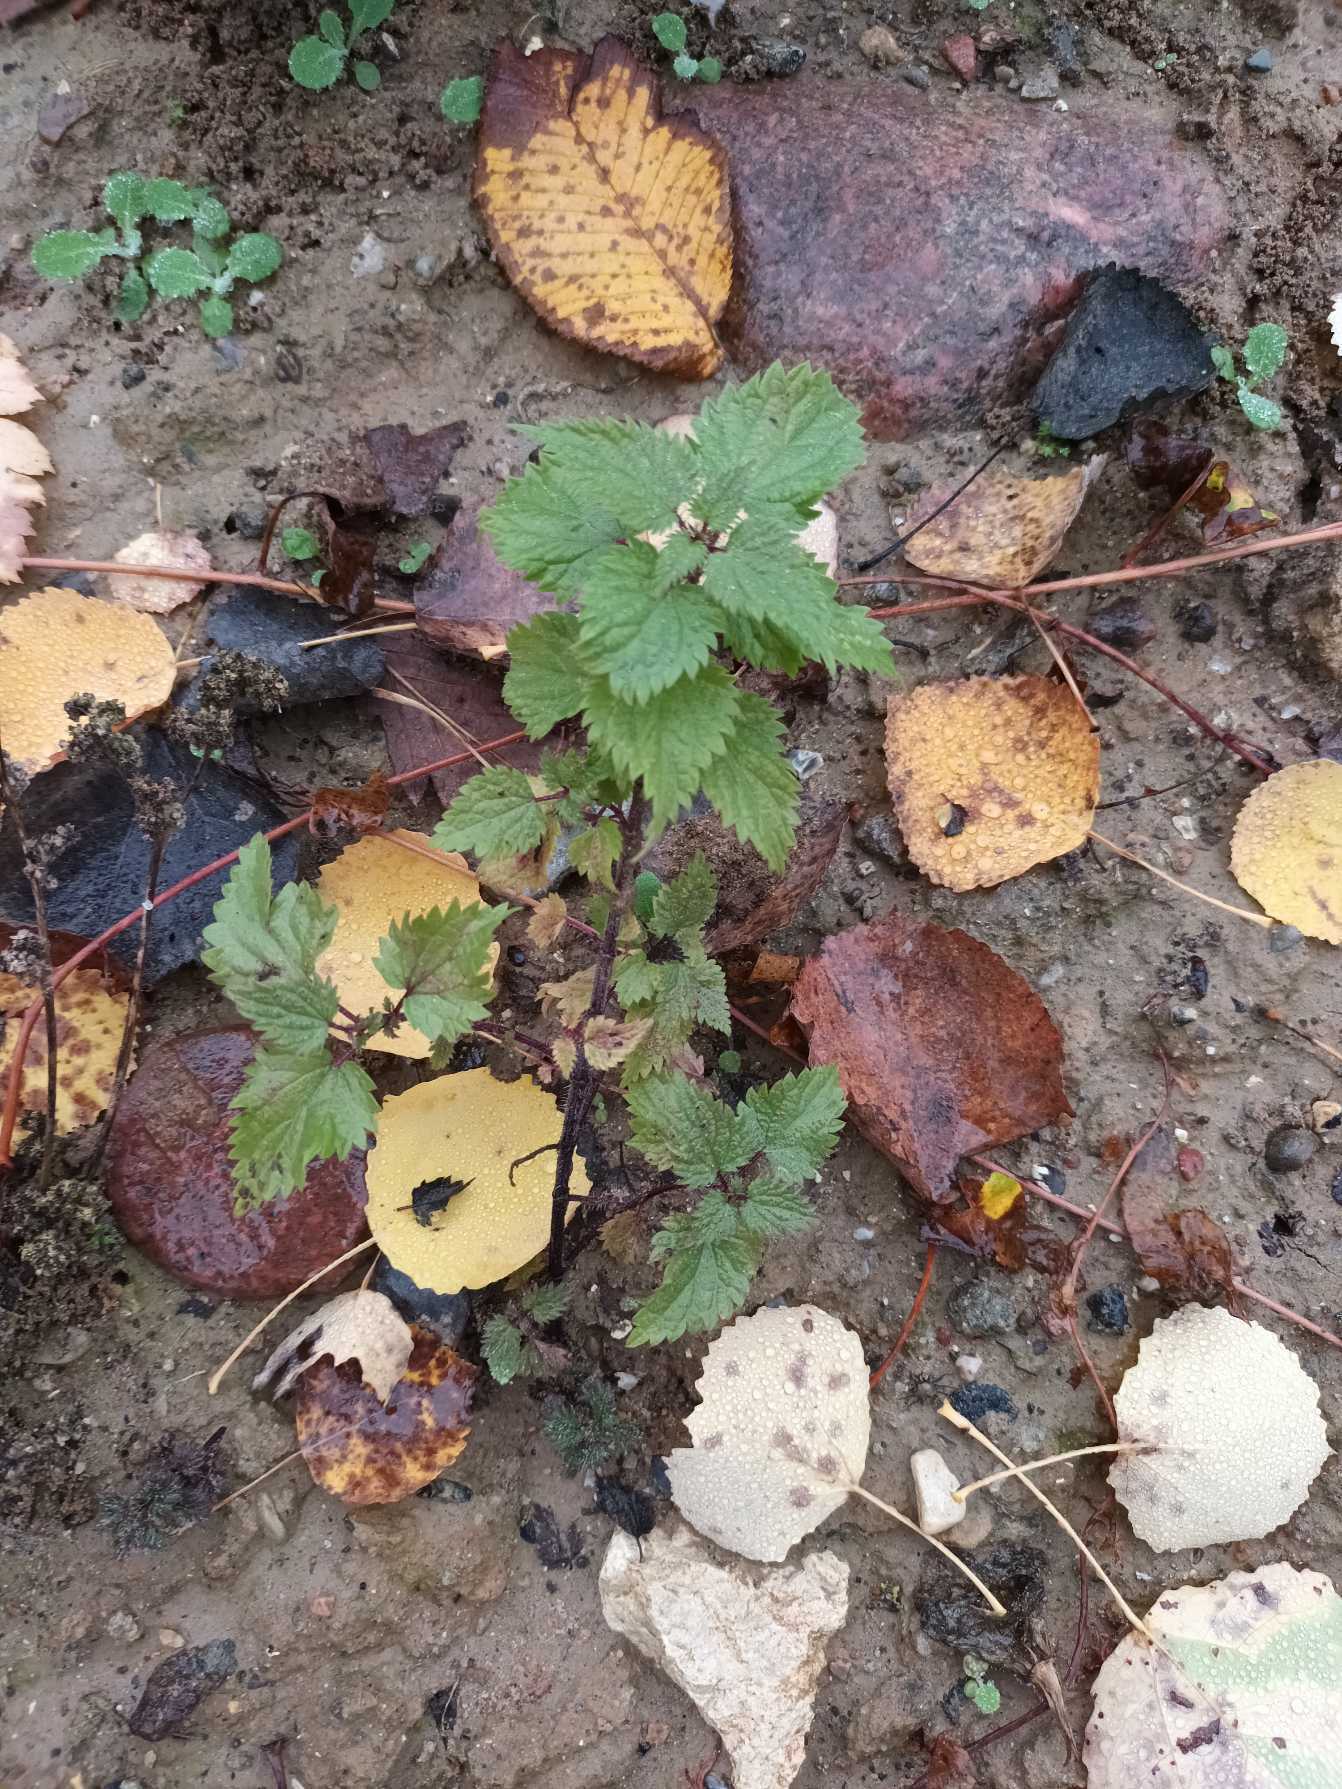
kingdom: Plantae
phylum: Tracheophyta
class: Magnoliopsida
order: Rosales
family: Urticaceae
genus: Urtica
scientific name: Urtica dioica
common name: Stor nælde
